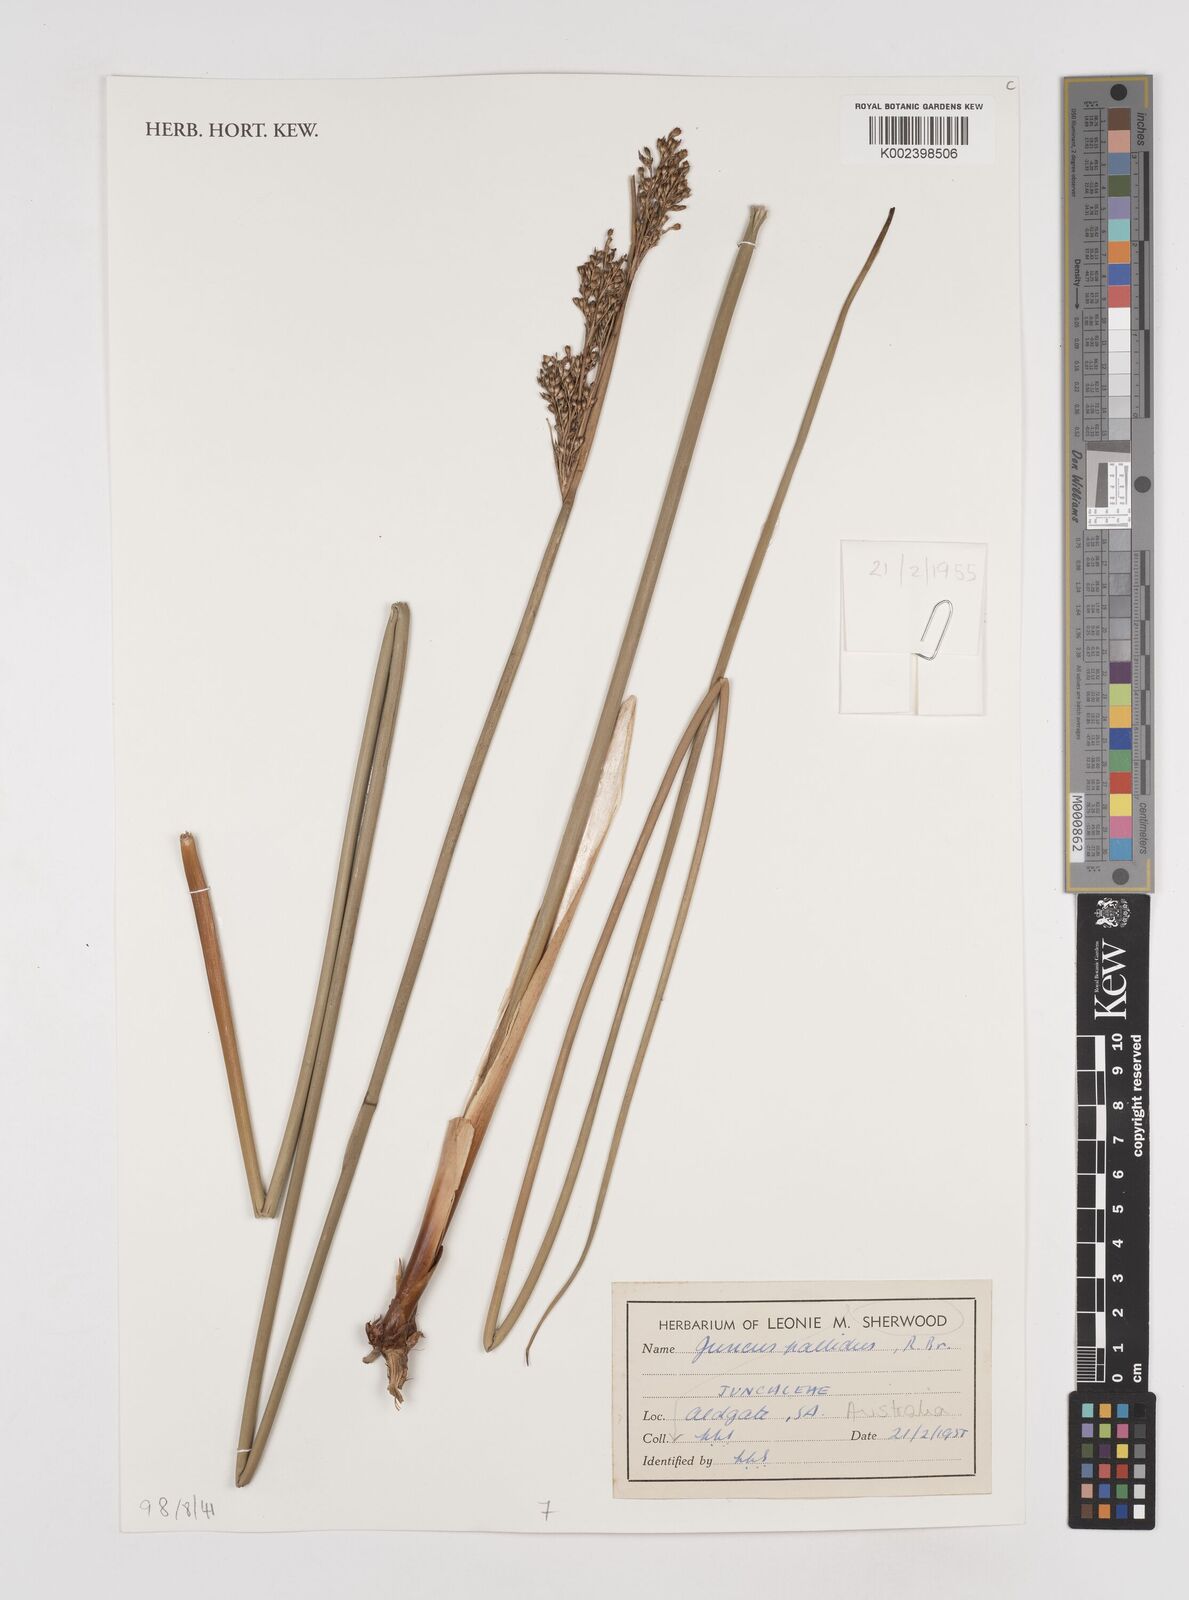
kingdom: Plantae
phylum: Tracheophyta
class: Liliopsida
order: Poales
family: Juncaceae
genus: Juncus
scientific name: Juncus pallidus
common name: Great soft-rush
